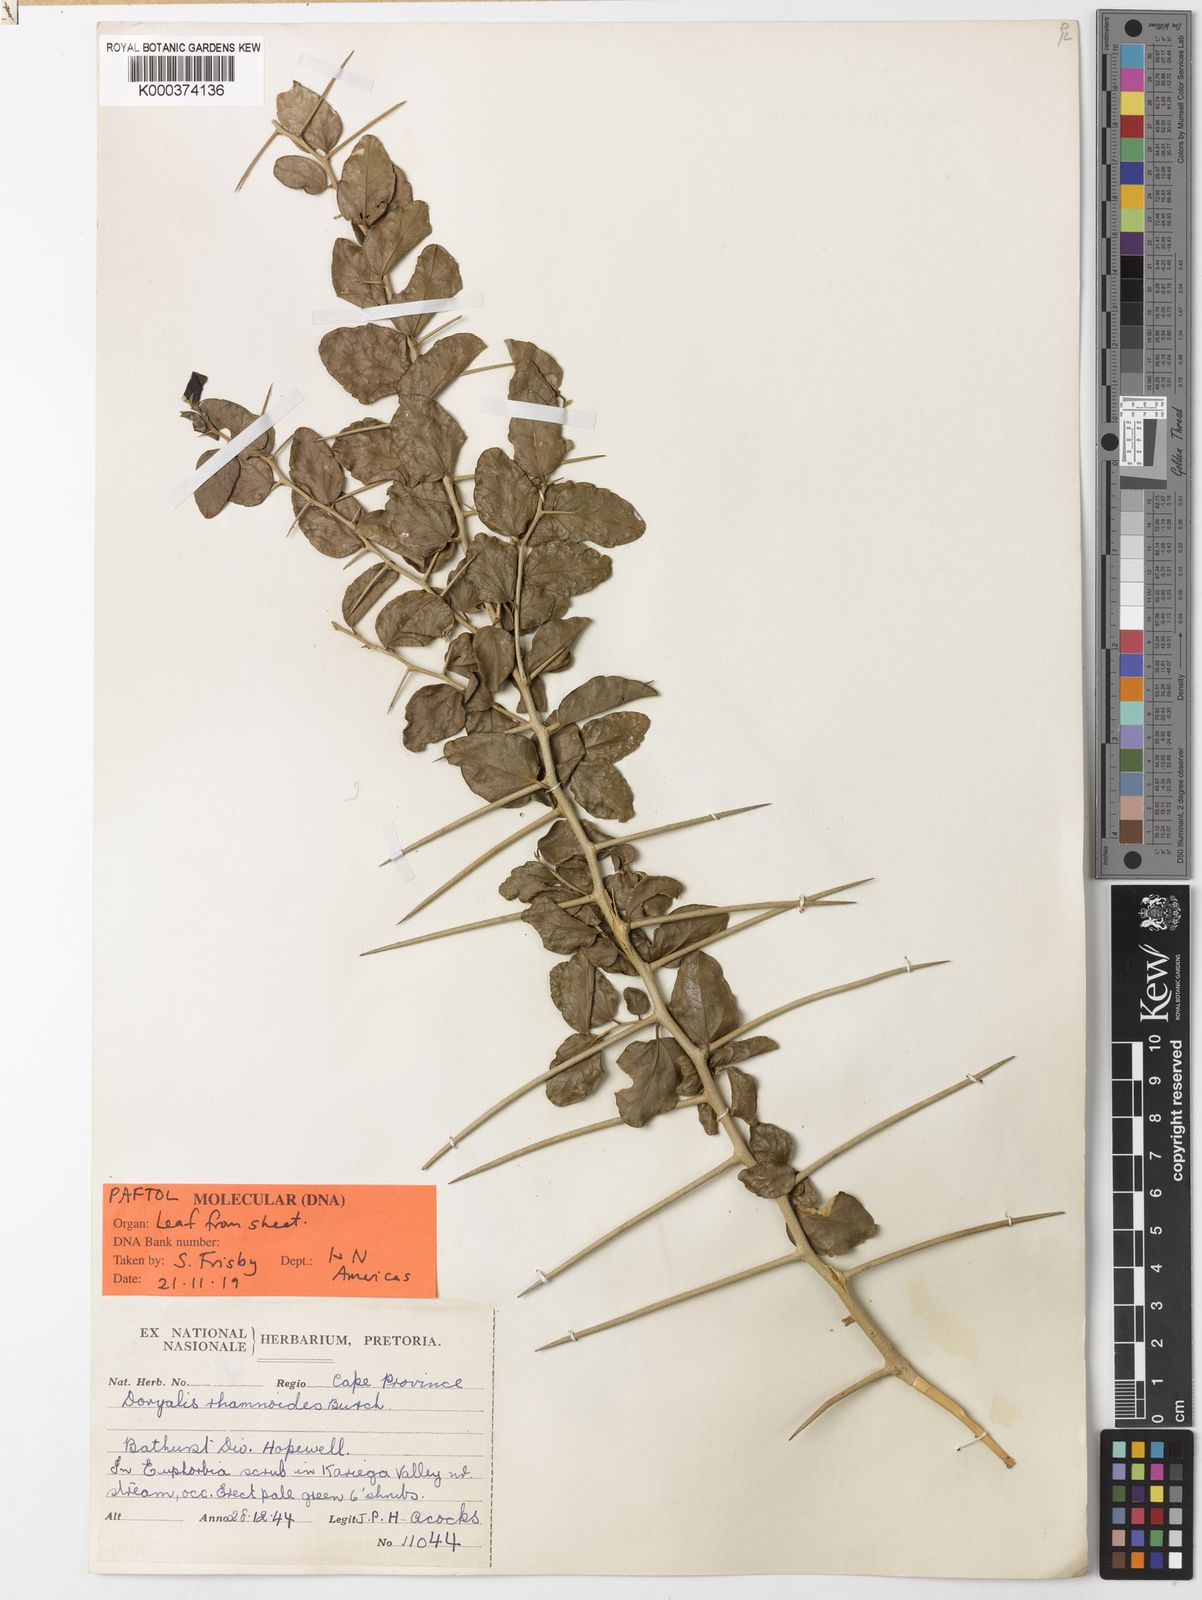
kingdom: Plantae
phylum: Tracheophyta
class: Magnoliopsida
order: Malpighiales
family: Salicaceae
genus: Dovyalis
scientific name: Dovyalis
